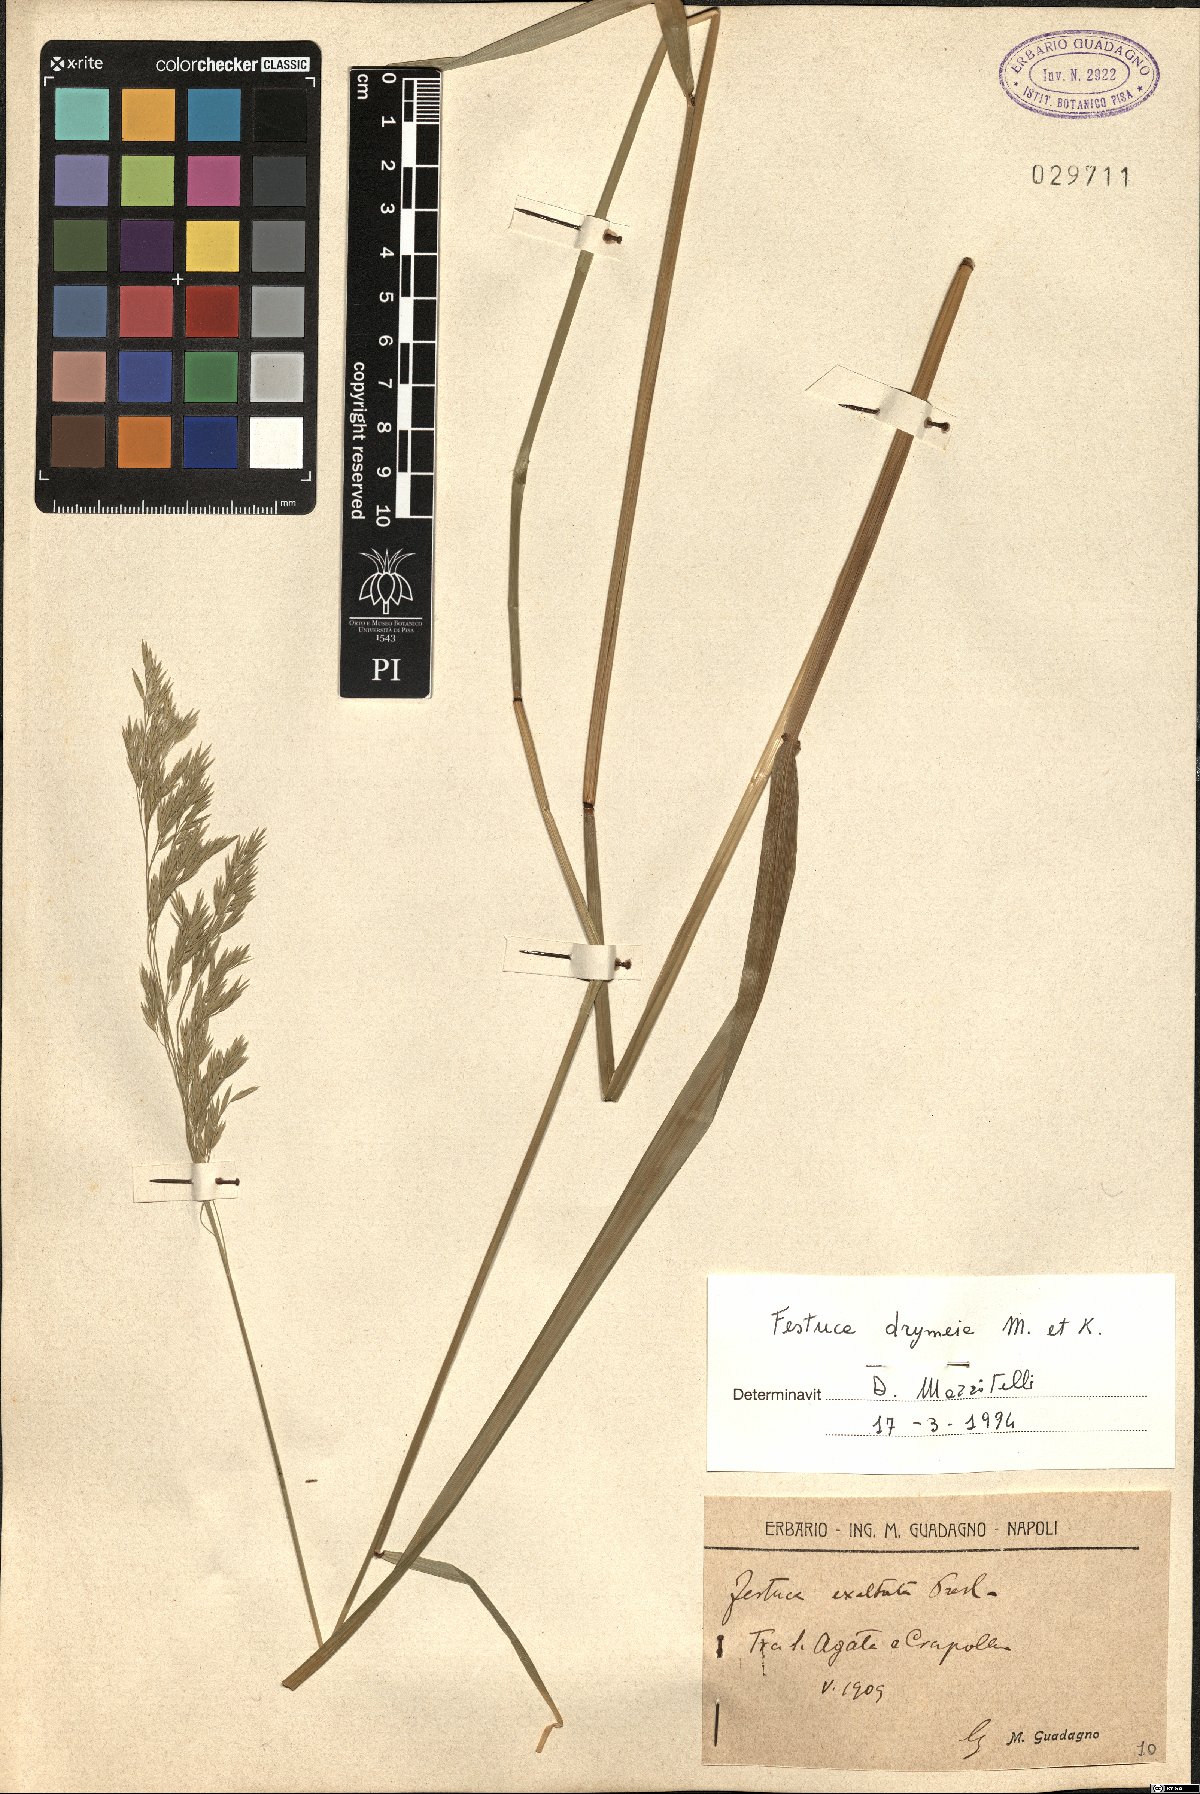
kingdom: Plantae
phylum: Tracheophyta
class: Liliopsida
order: Poales
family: Poaceae
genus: Festuca
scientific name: Festuca drymeja
